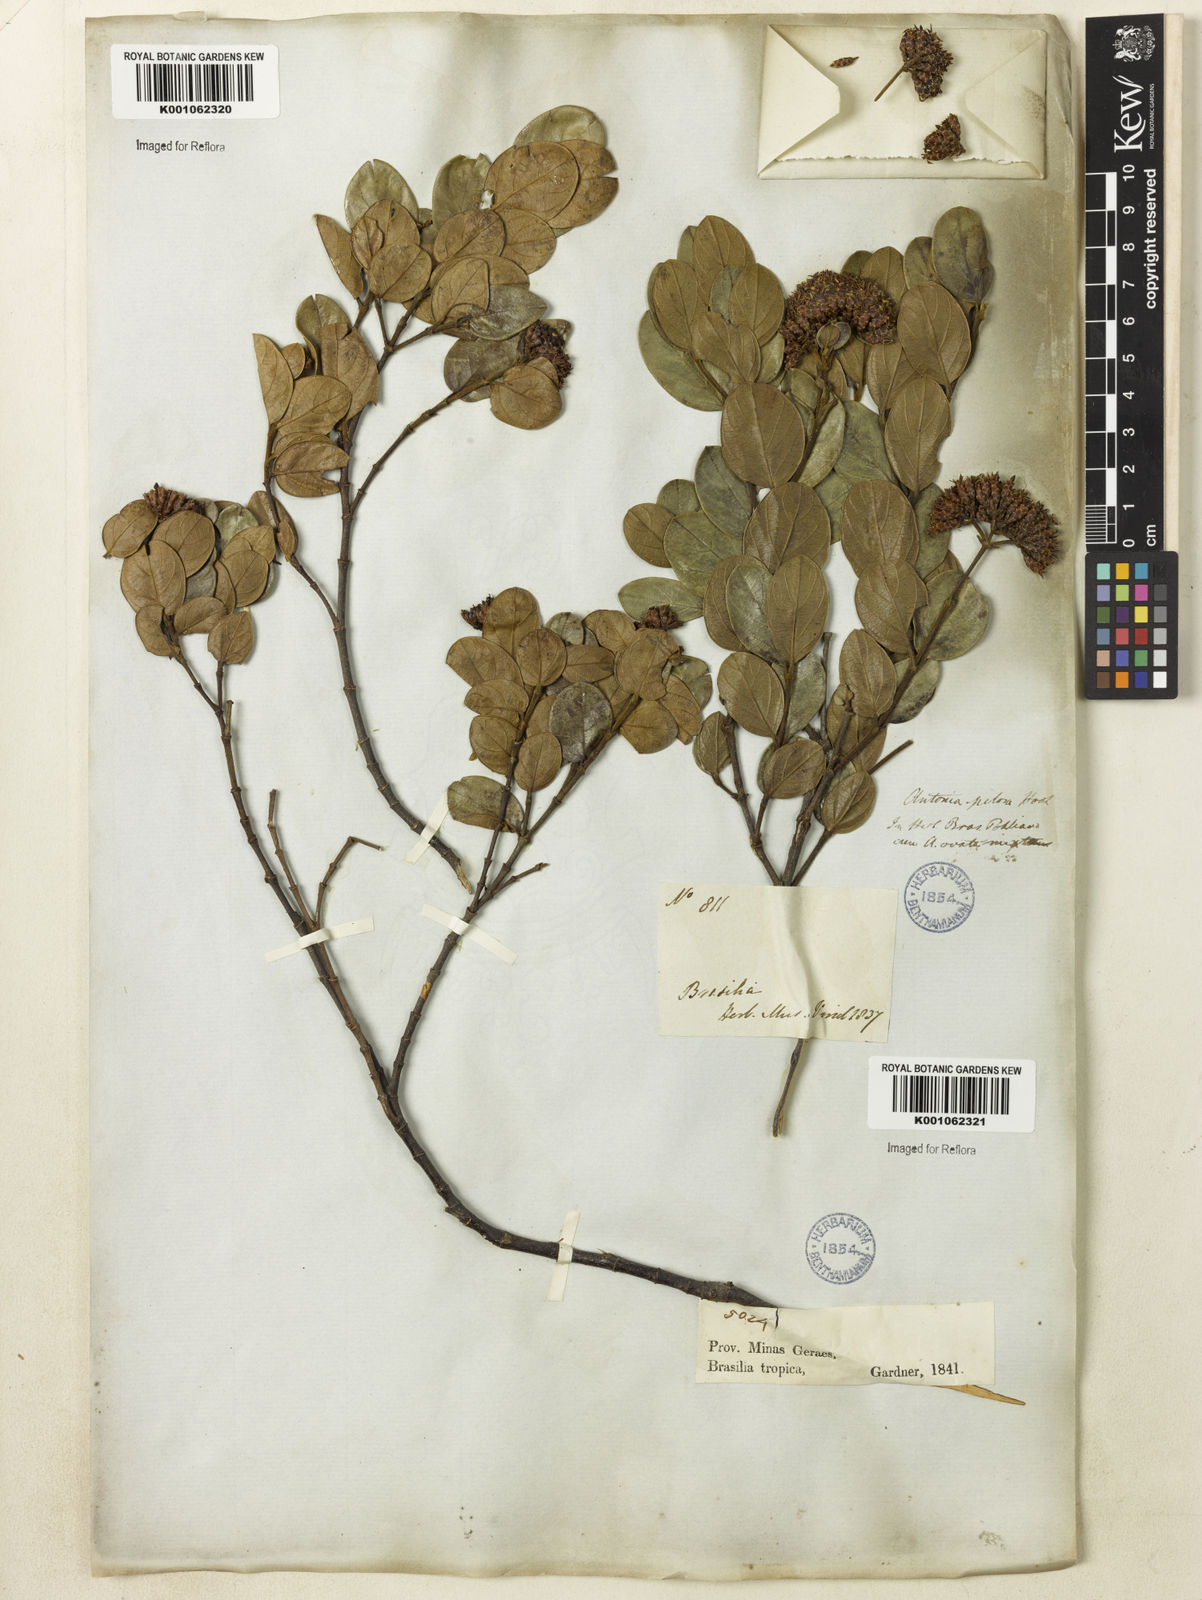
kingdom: Plantae
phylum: Tracheophyta
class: Magnoliopsida
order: Gentianales
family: Loganiaceae
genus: Antonia
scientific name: Antonia ovata
